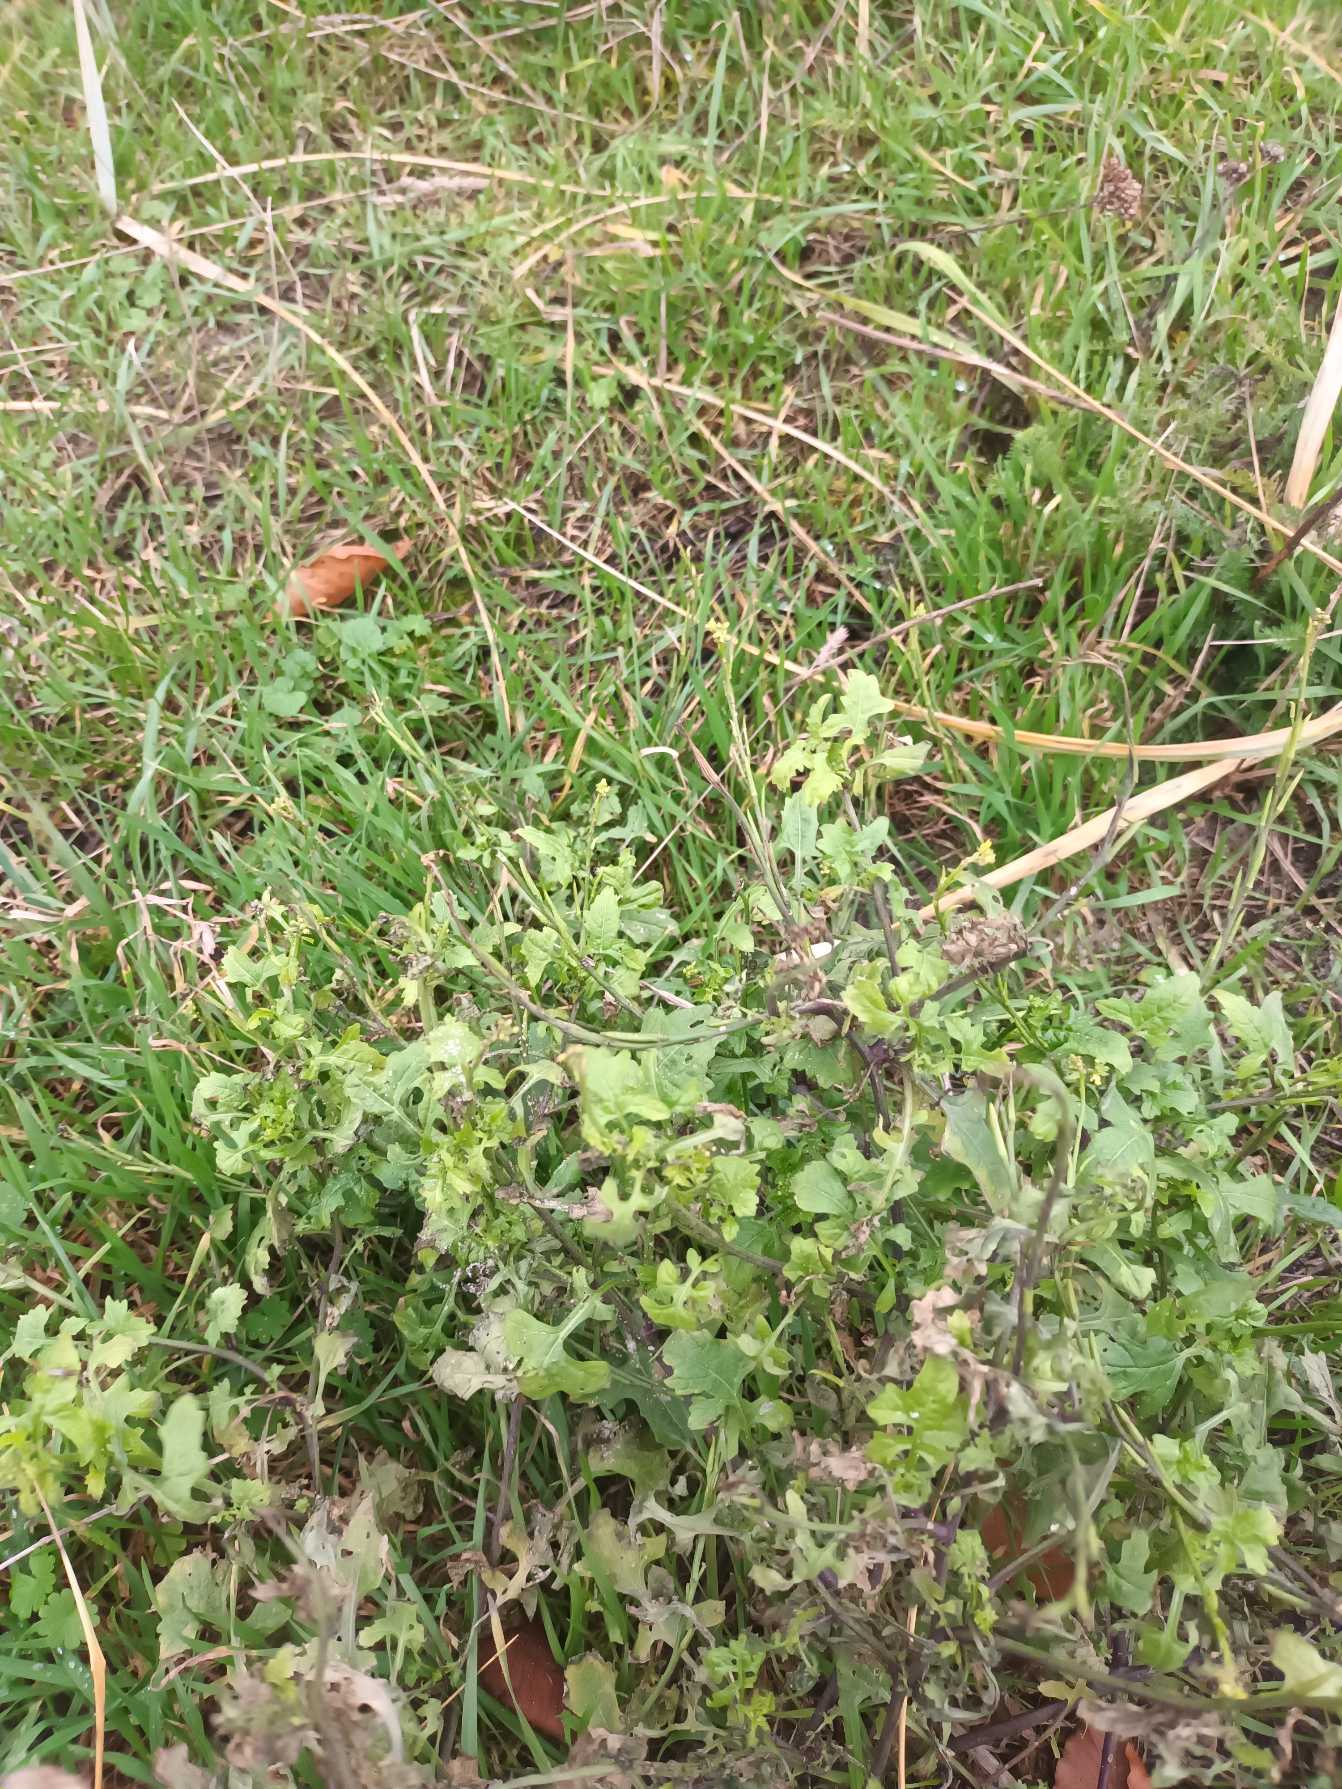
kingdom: Plantae
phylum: Tracheophyta
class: Magnoliopsida
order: Brassicales
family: Brassicaceae
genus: Sisymbrium
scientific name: Sisymbrium officinale
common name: Rank vejsennep
